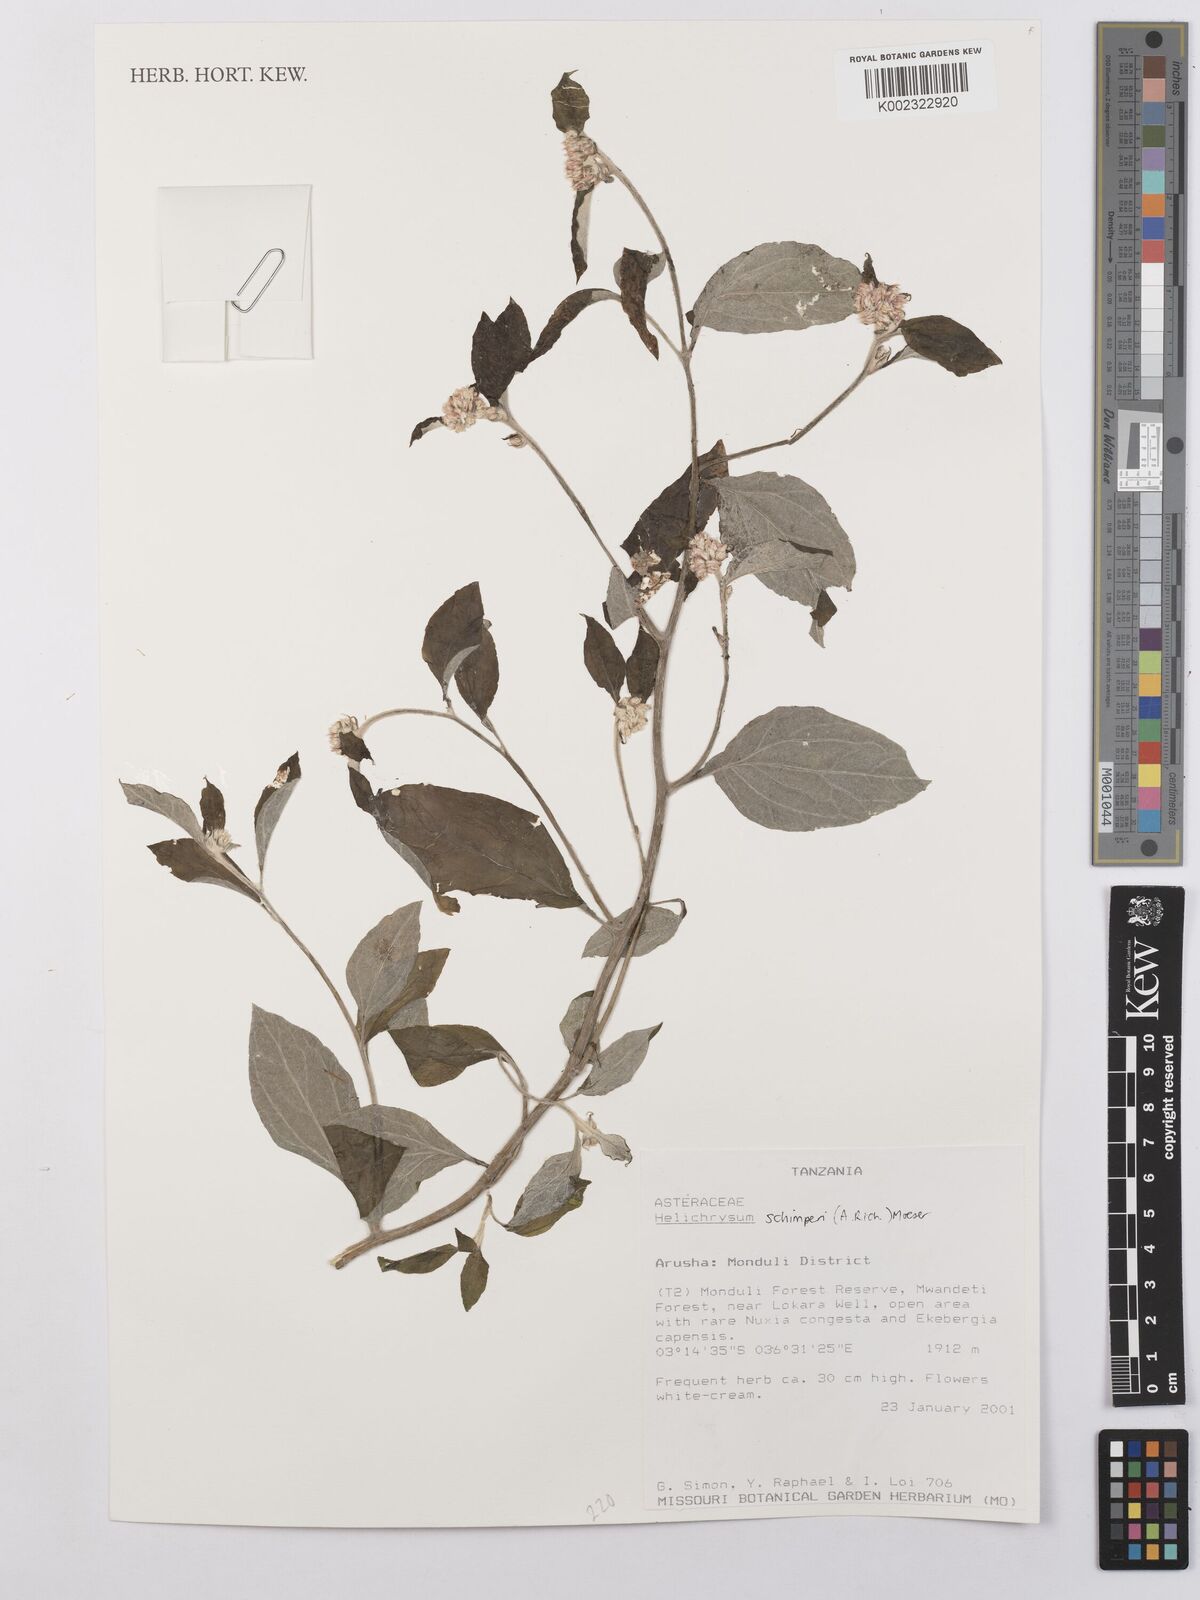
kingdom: Plantae
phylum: Tracheophyta
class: Magnoliopsida
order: Asterales
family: Asteraceae
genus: Helichrysum
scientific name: Helichrysum schimperi
